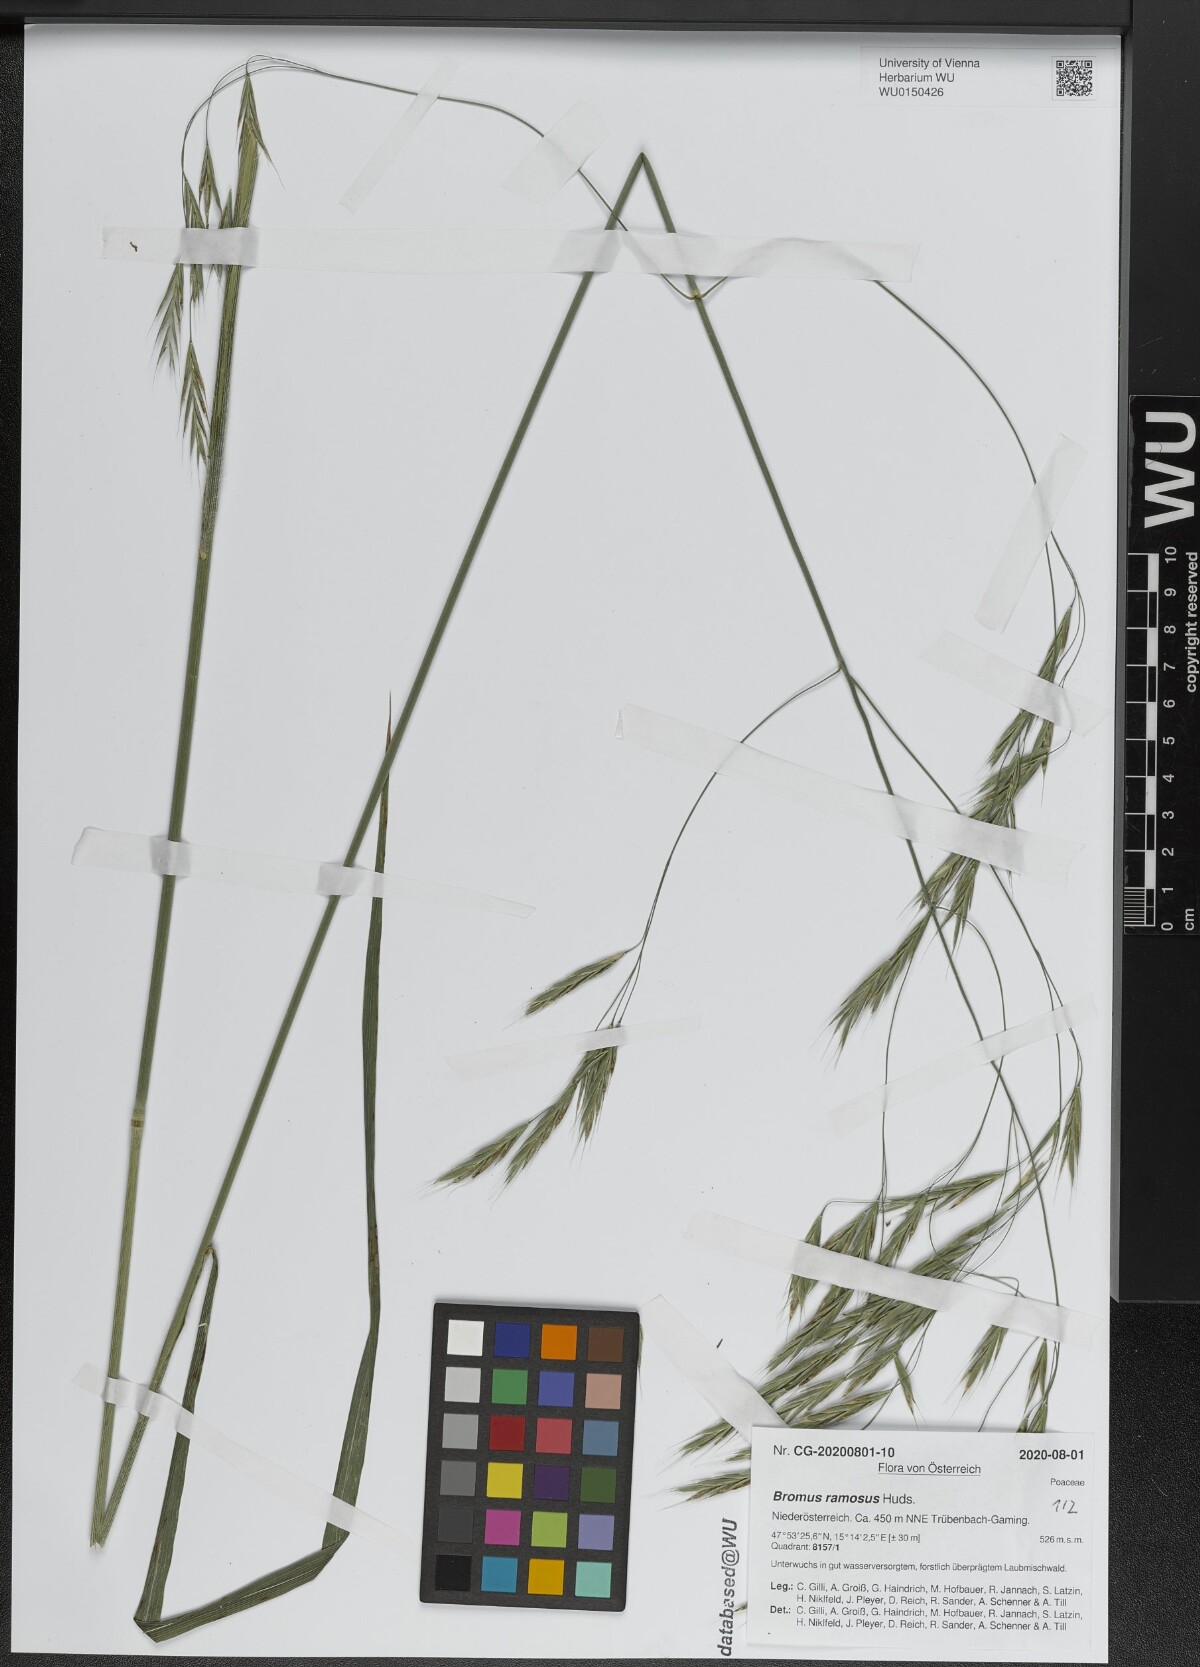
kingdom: Plantae
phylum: Tracheophyta
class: Liliopsida
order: Poales
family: Poaceae
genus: Bromus
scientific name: Bromus ramosus
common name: Hairy brome
